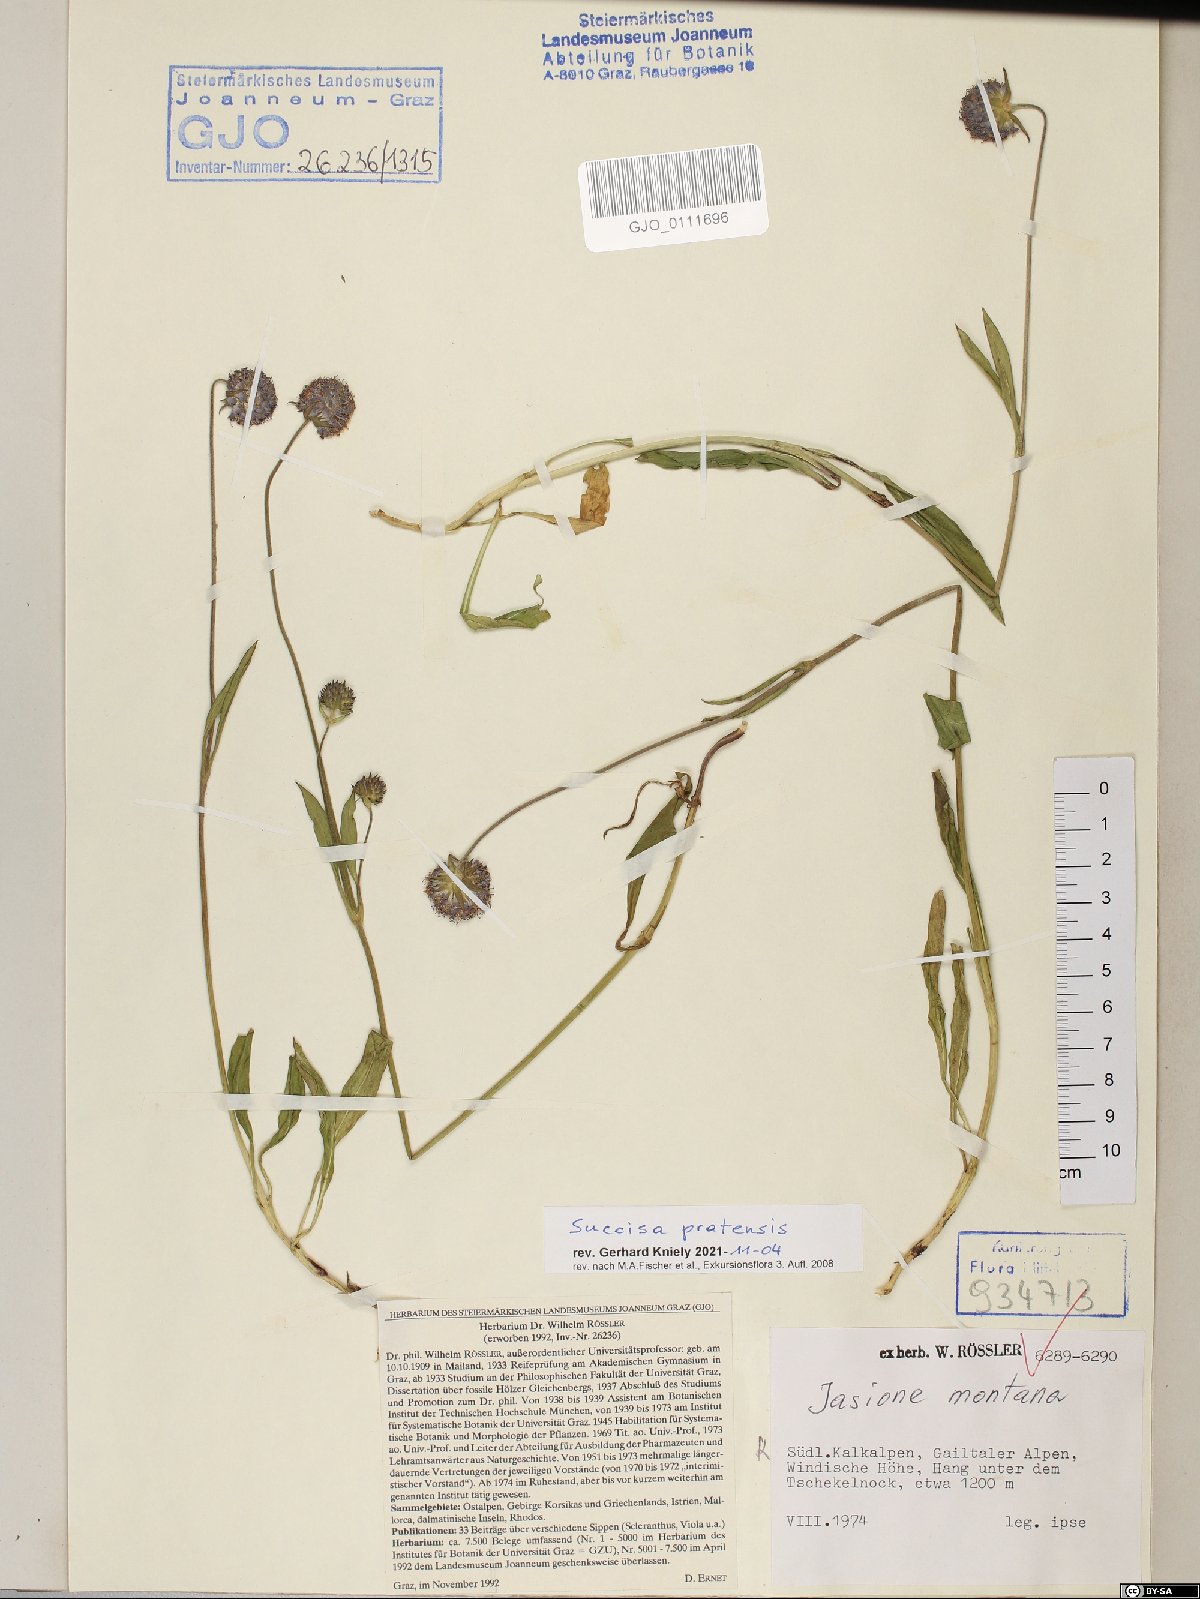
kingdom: Plantae
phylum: Tracheophyta
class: Magnoliopsida
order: Dipsacales
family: Caprifoliaceae
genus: Succisa
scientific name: Succisa pratensis
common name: Devil's-bit
